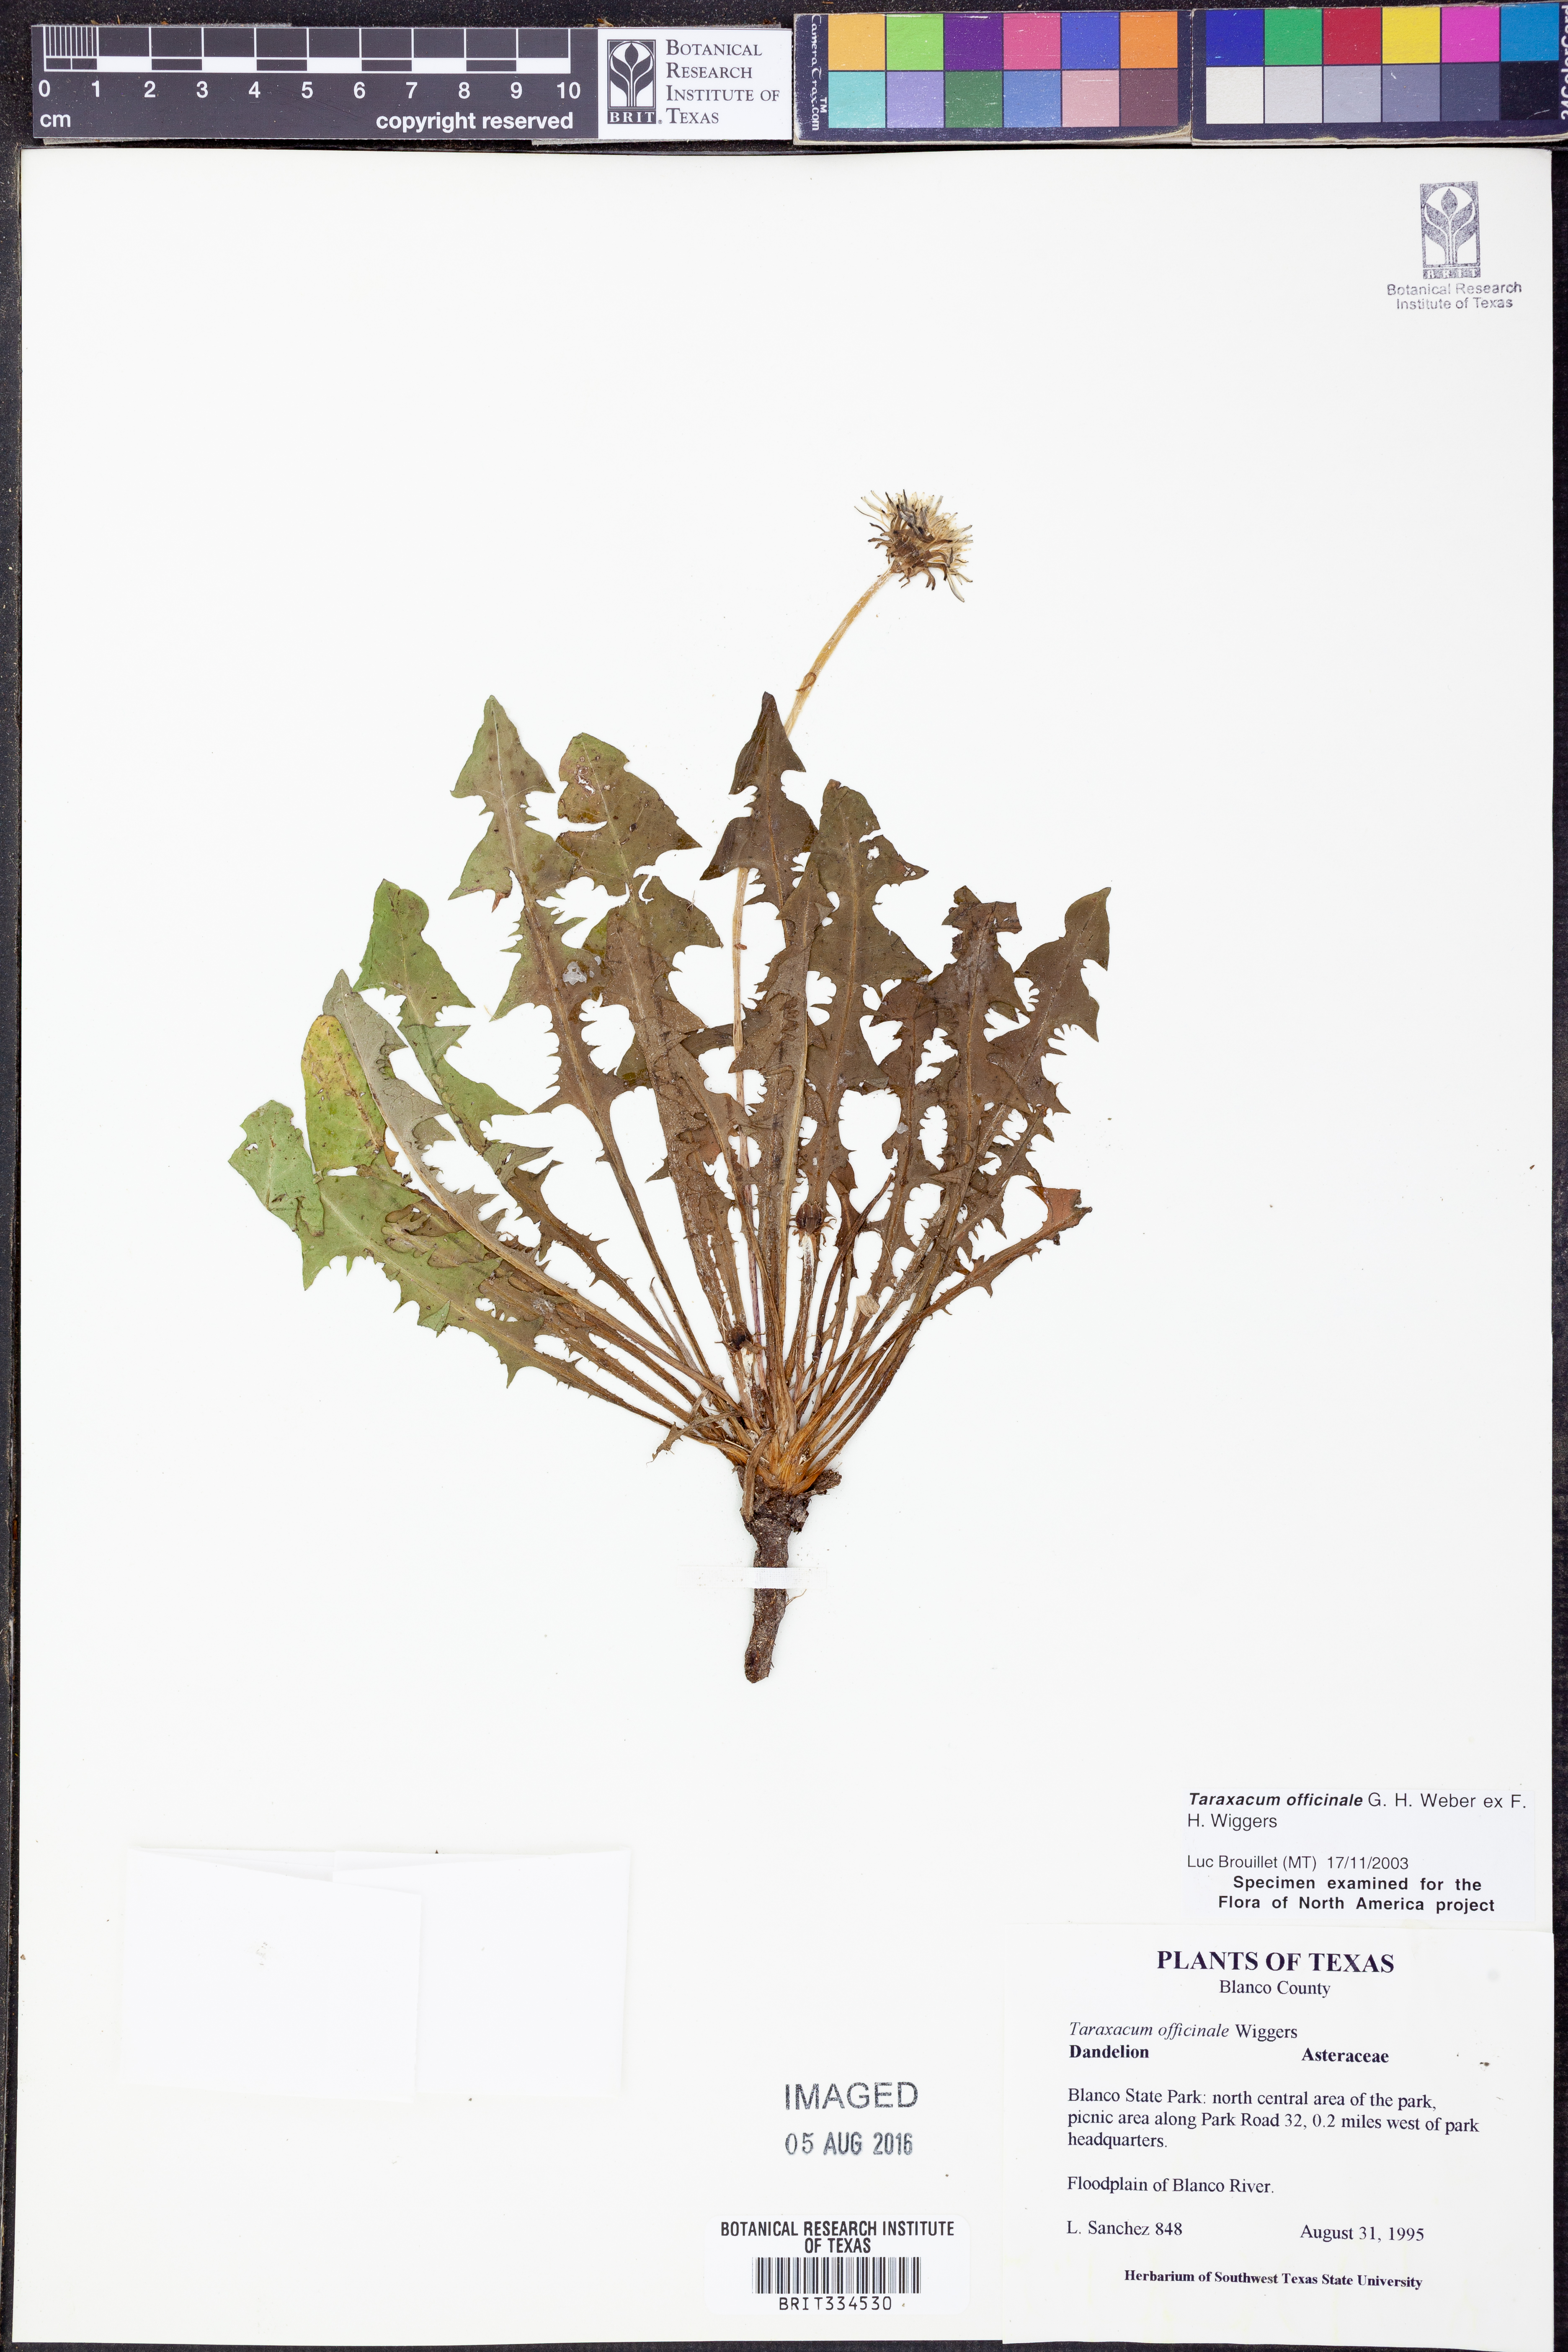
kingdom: Plantae
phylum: Tracheophyta
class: Magnoliopsida
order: Asterales
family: Asteraceae
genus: Taraxacum
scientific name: Taraxacum officinale
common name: Common dandelion
